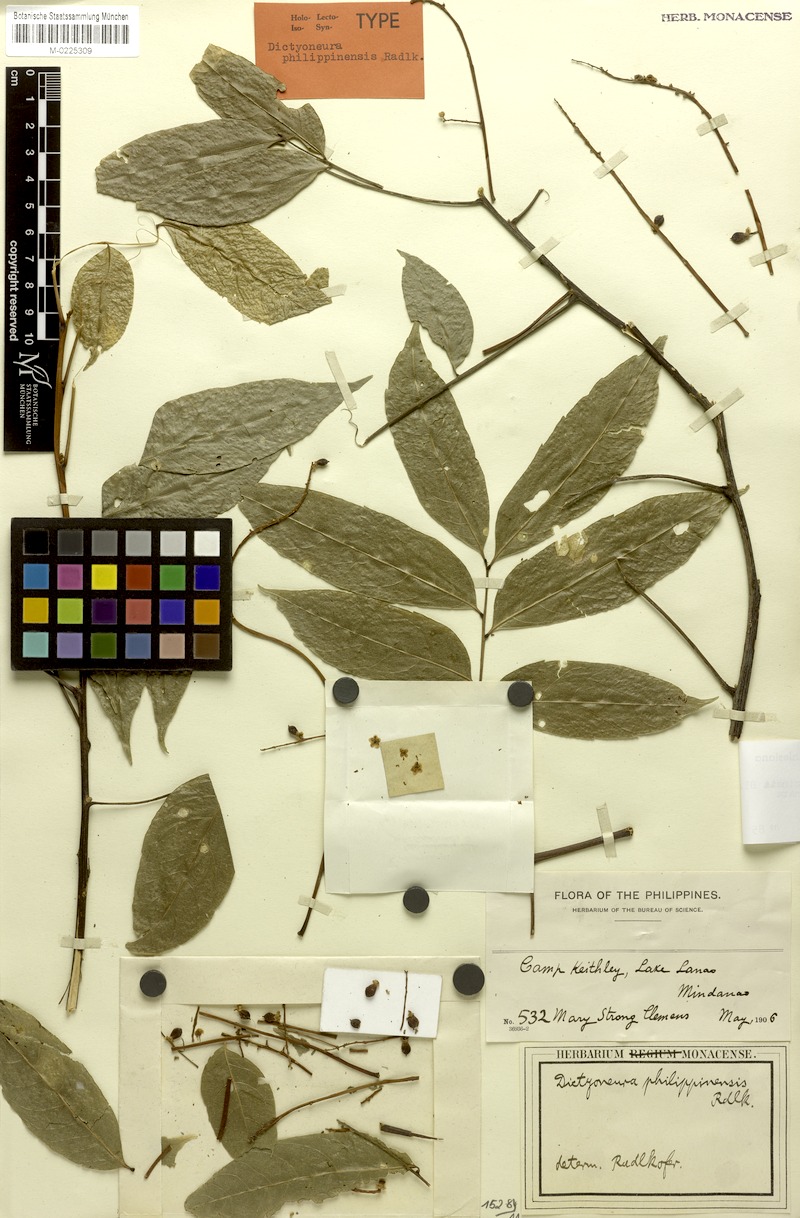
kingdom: Plantae
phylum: Tracheophyta
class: Magnoliopsida
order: Sapindales
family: Sapindaceae
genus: Dictyoneura
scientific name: Dictyoneura acuminata
